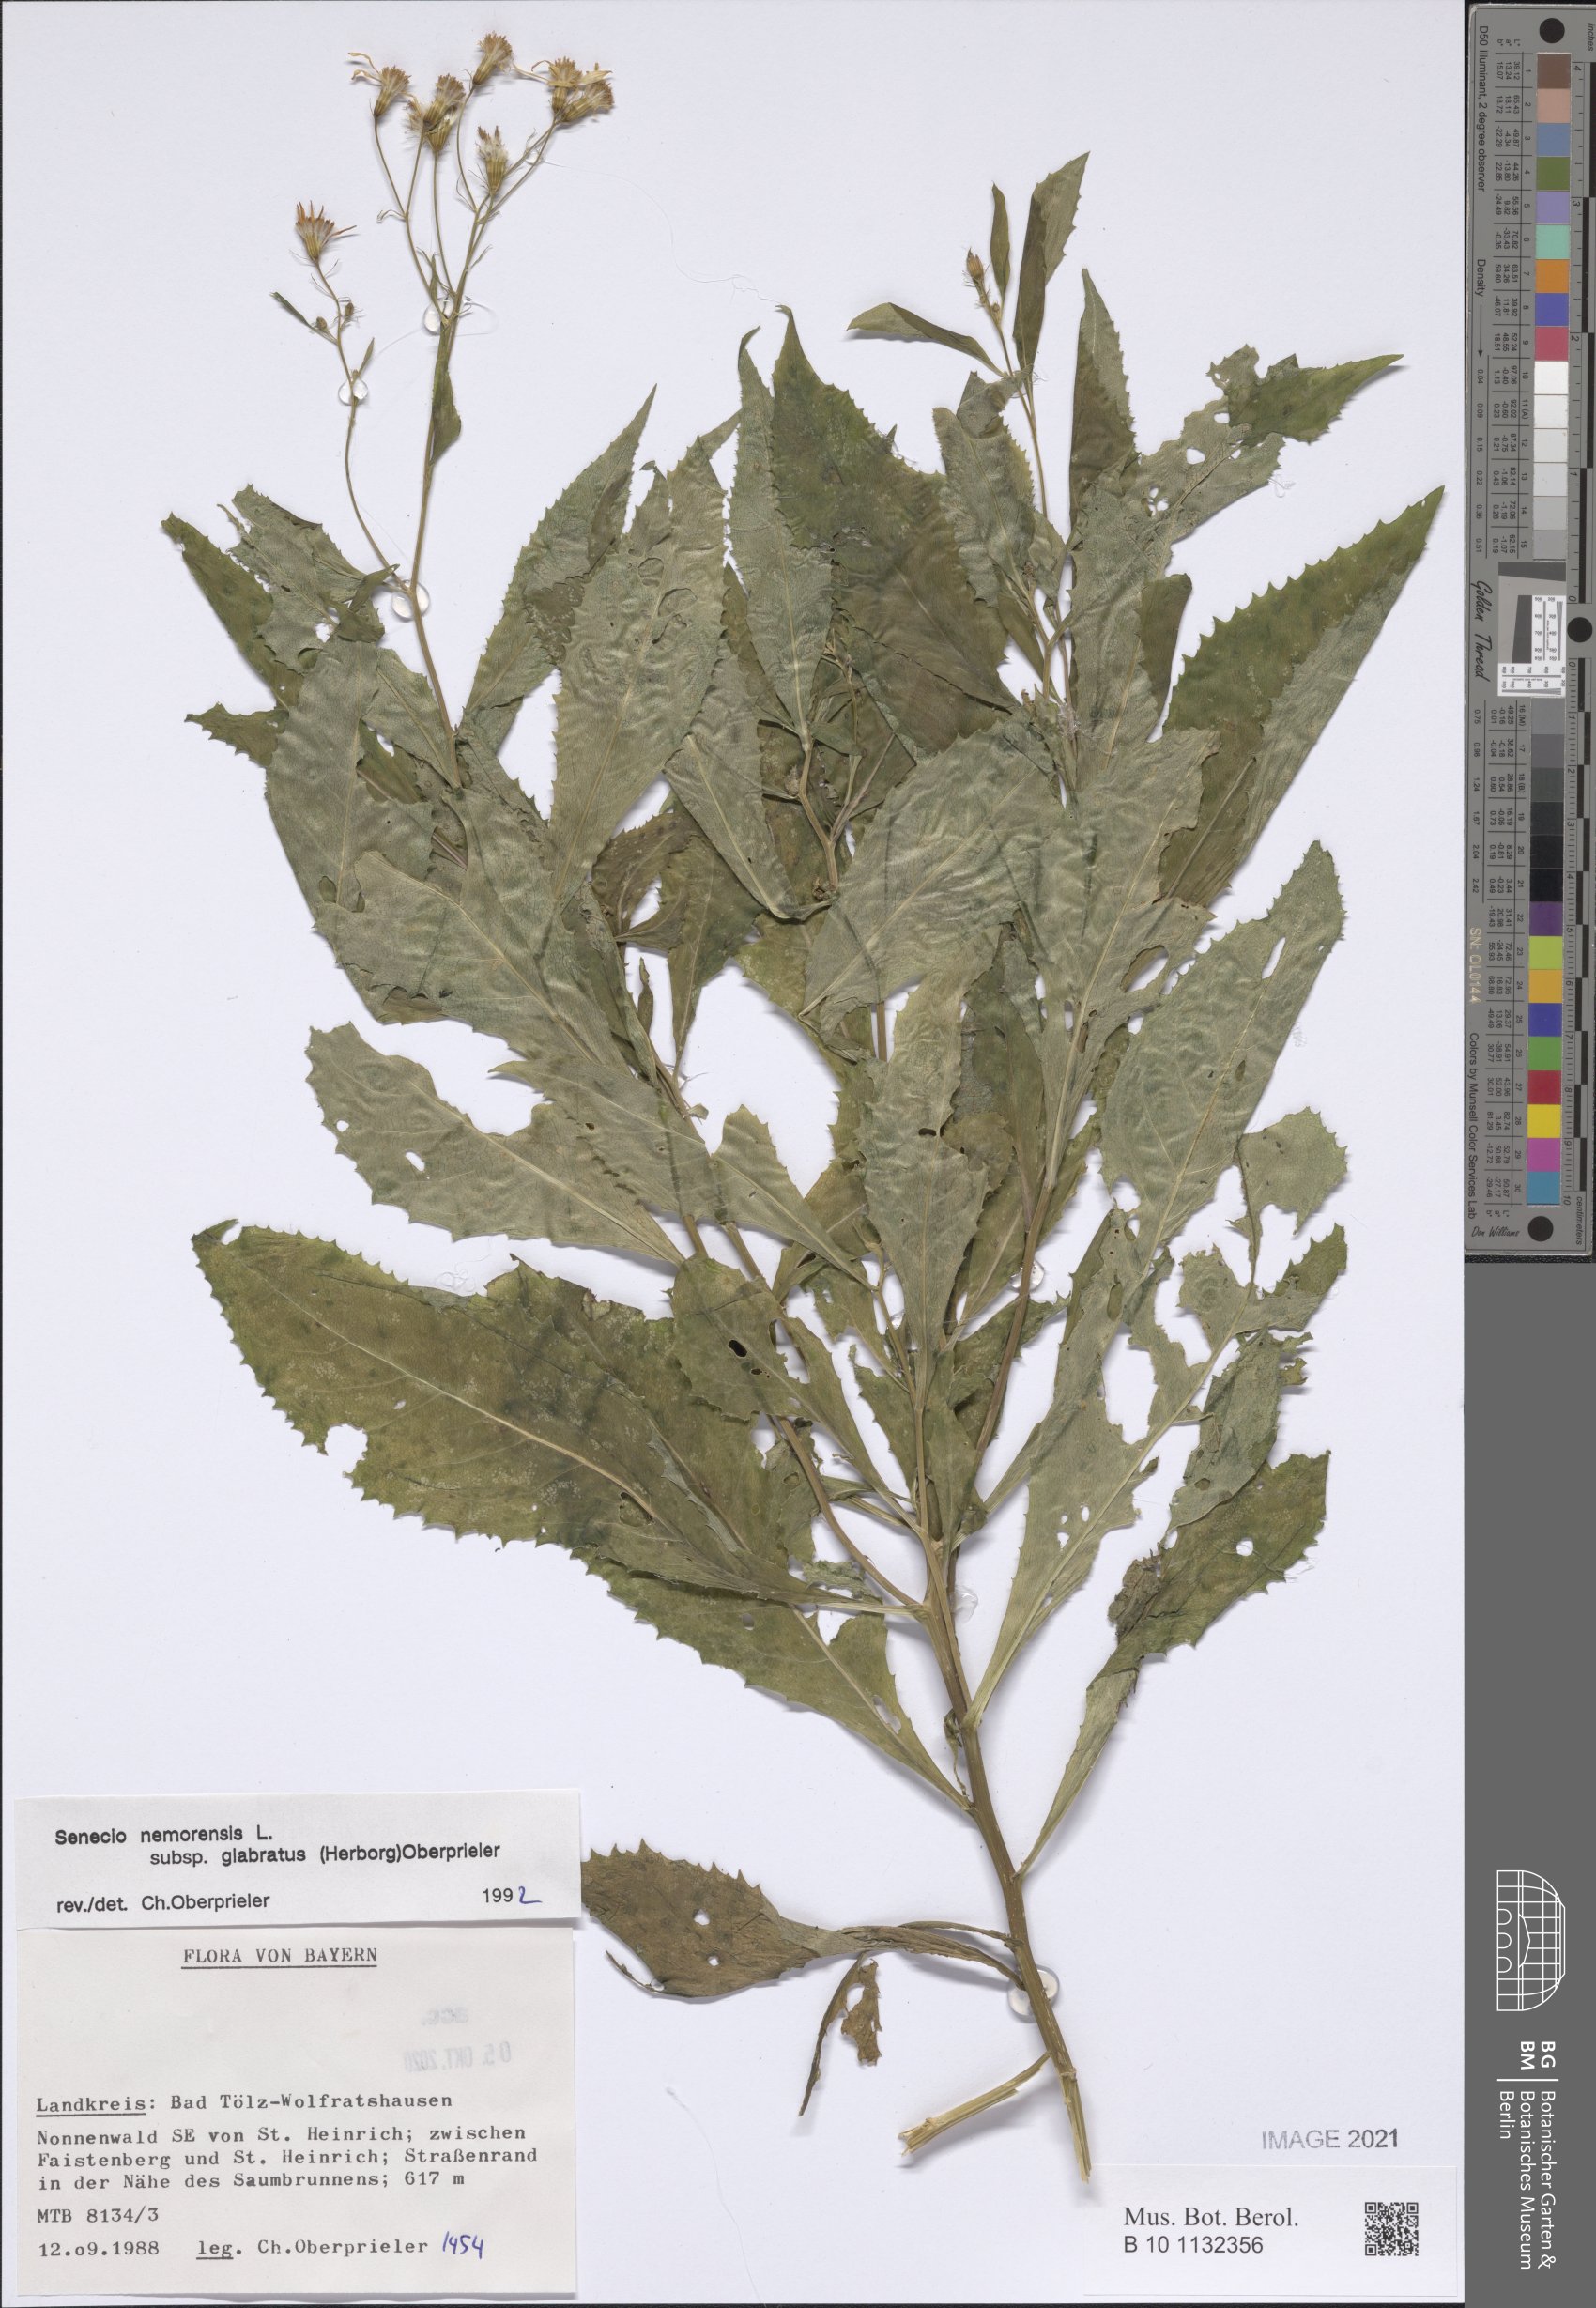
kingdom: Plantae
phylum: Tracheophyta
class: Magnoliopsida
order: Asterales
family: Asteraceae
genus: Senecio
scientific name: Senecio germanicus
